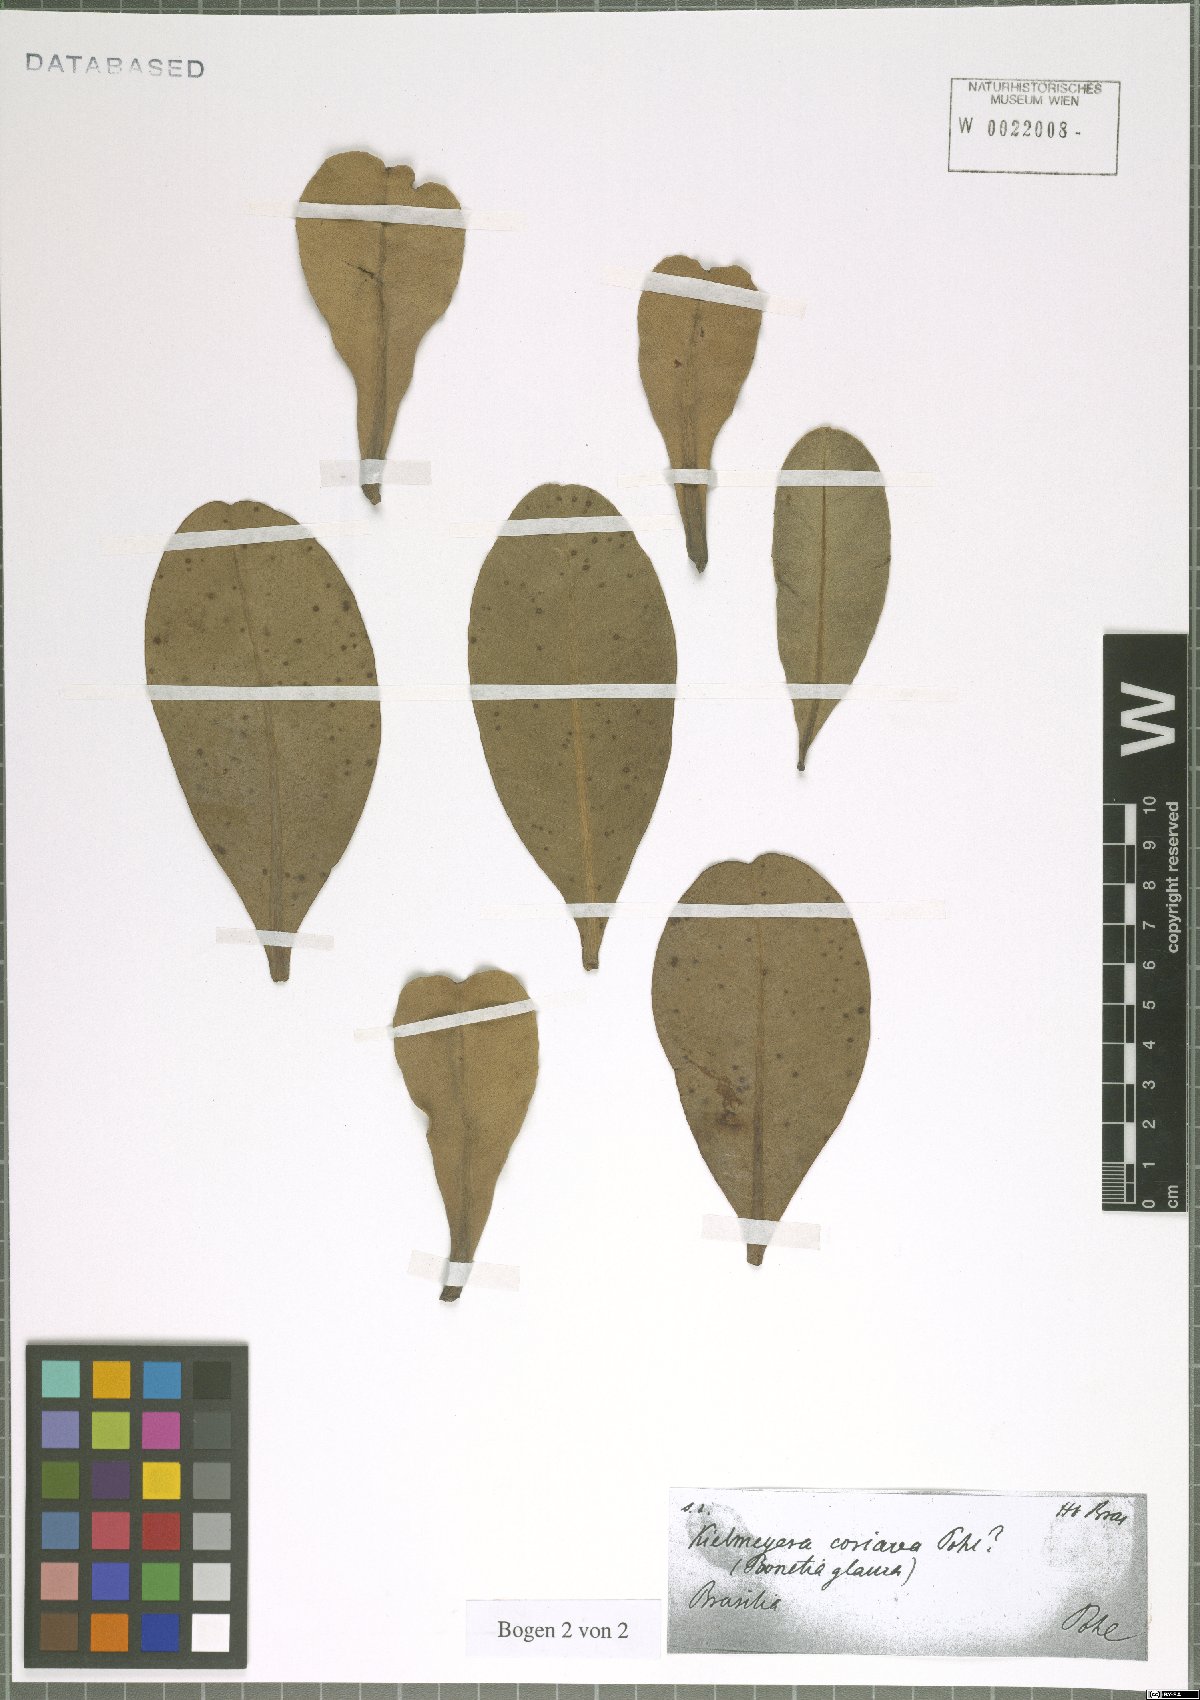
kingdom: Plantae
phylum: Tracheophyta
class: Magnoliopsida
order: Malpighiales
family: Calophyllaceae
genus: Kielmeyera
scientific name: Kielmeyera coriacea
